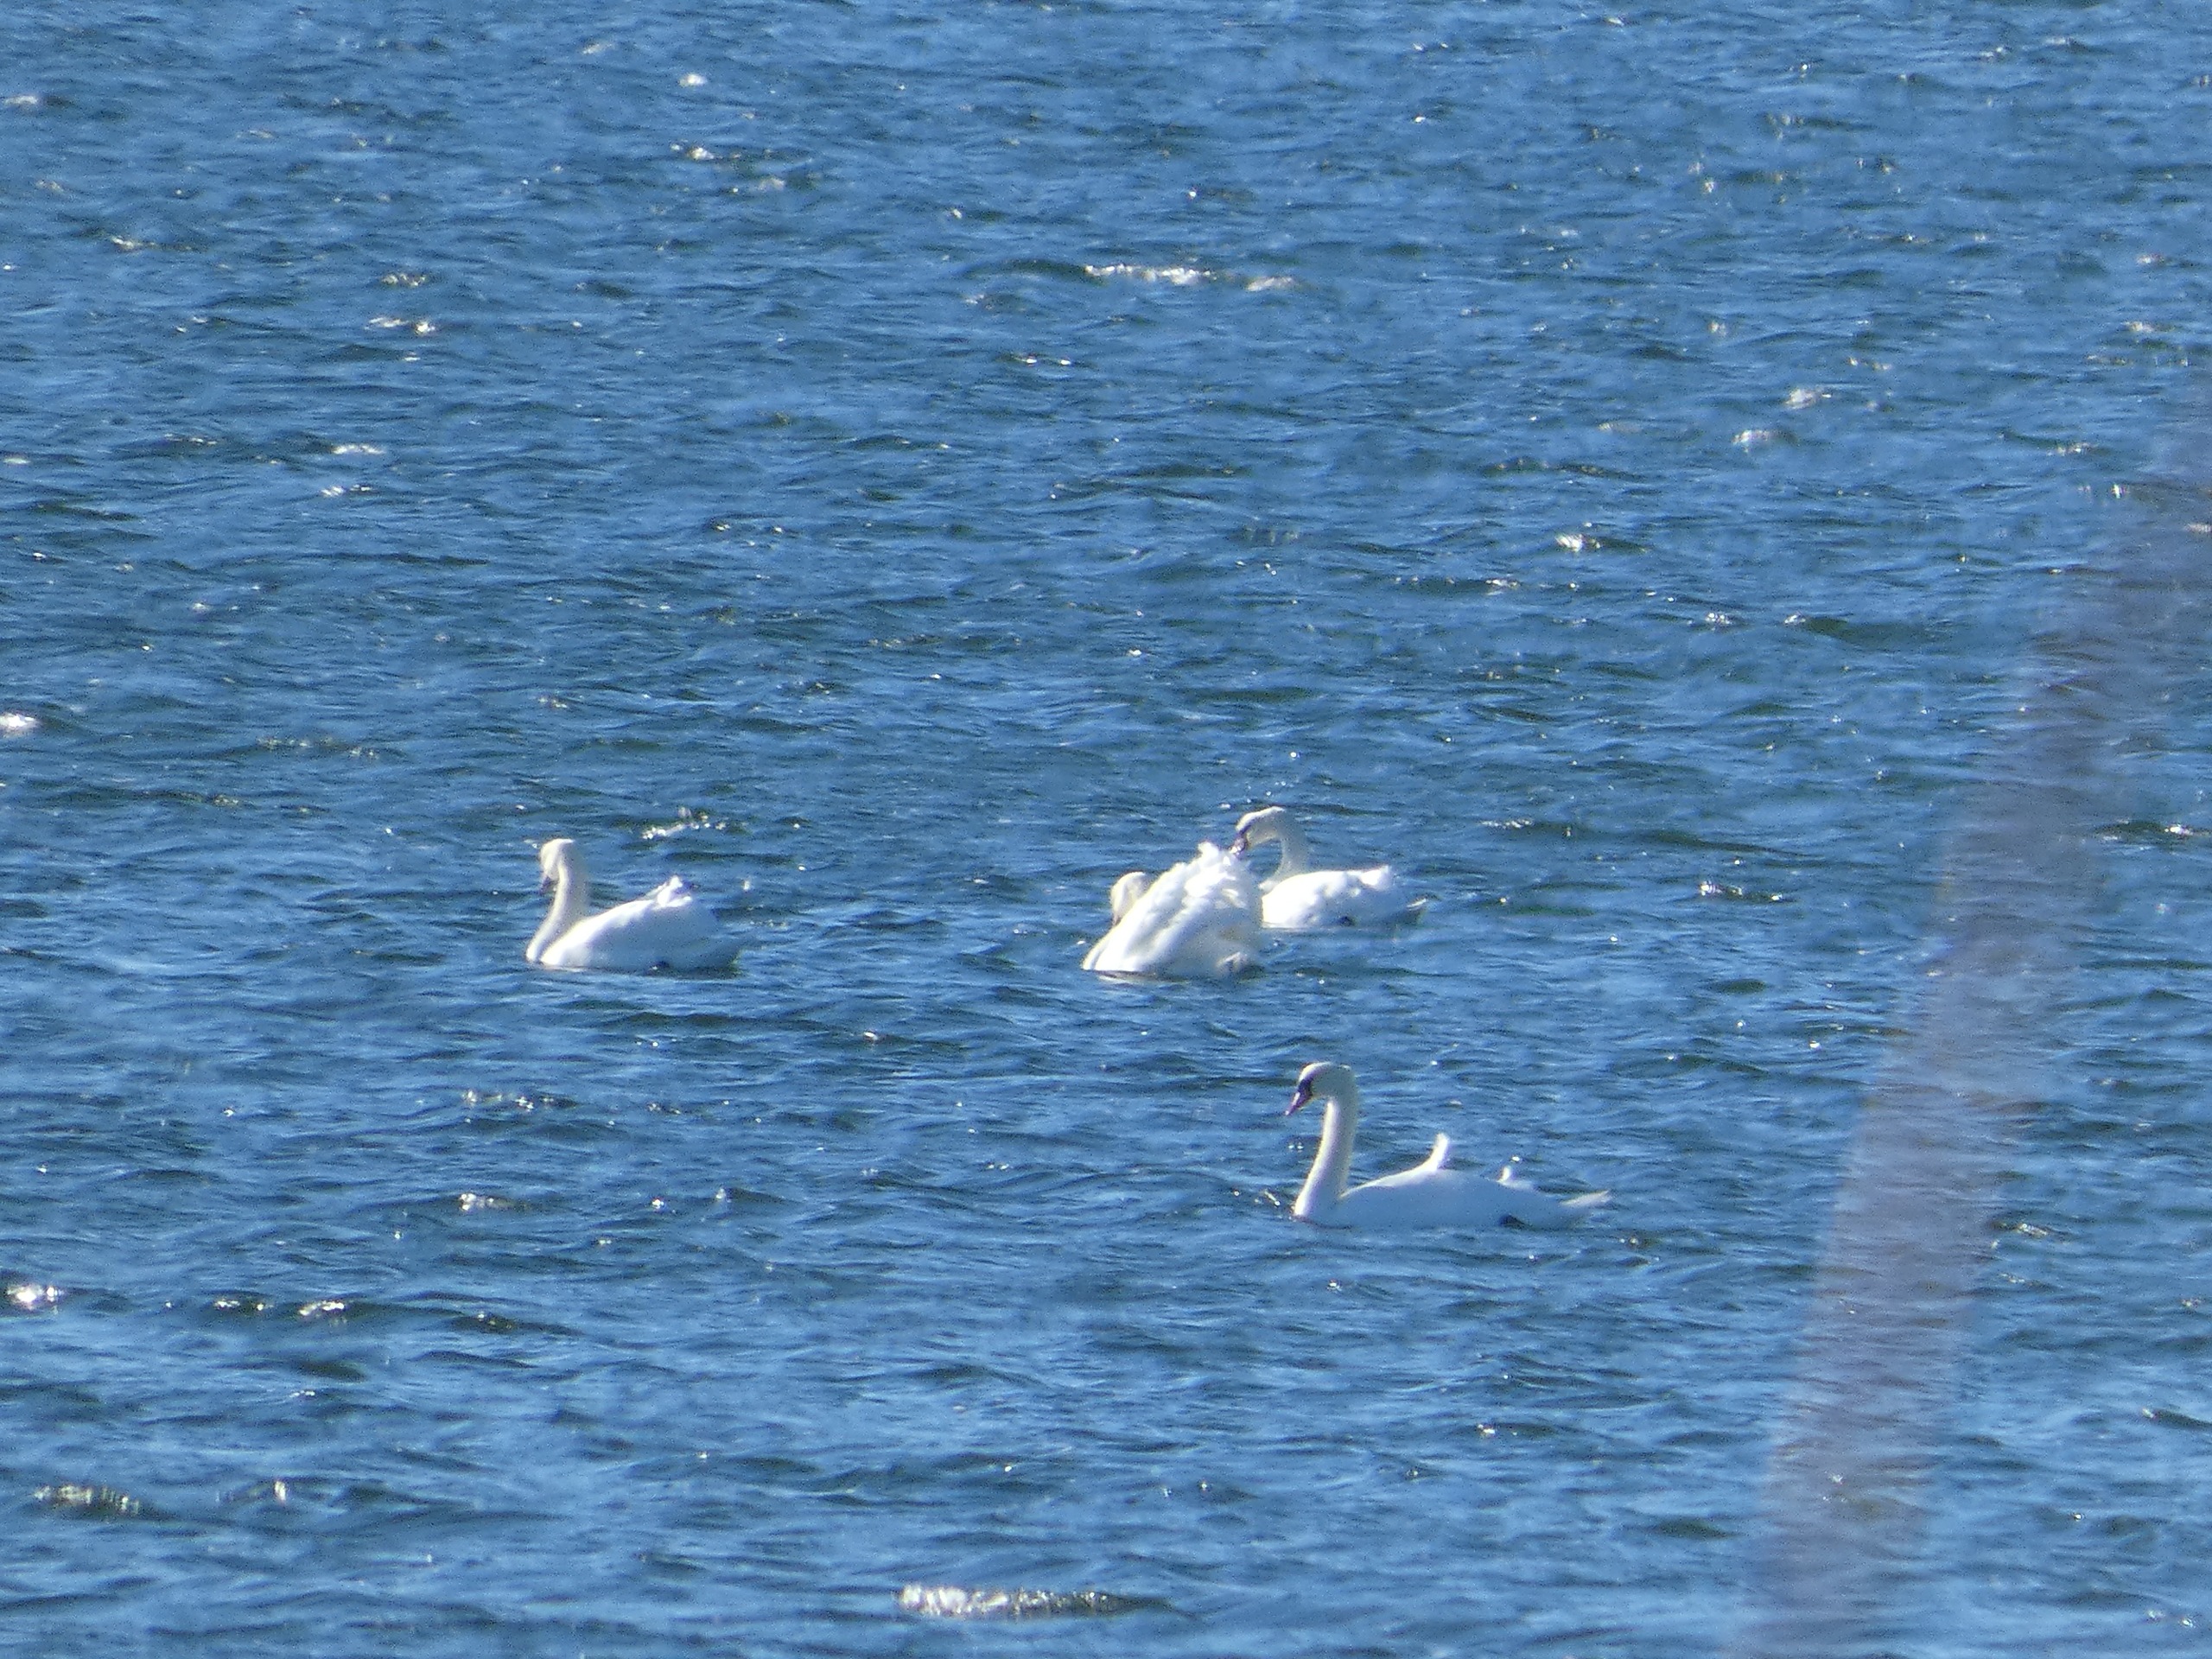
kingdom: Animalia
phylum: Chordata
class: Aves
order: Anseriformes
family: Anatidae
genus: Cygnus
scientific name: Cygnus olor
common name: Knopsvane
